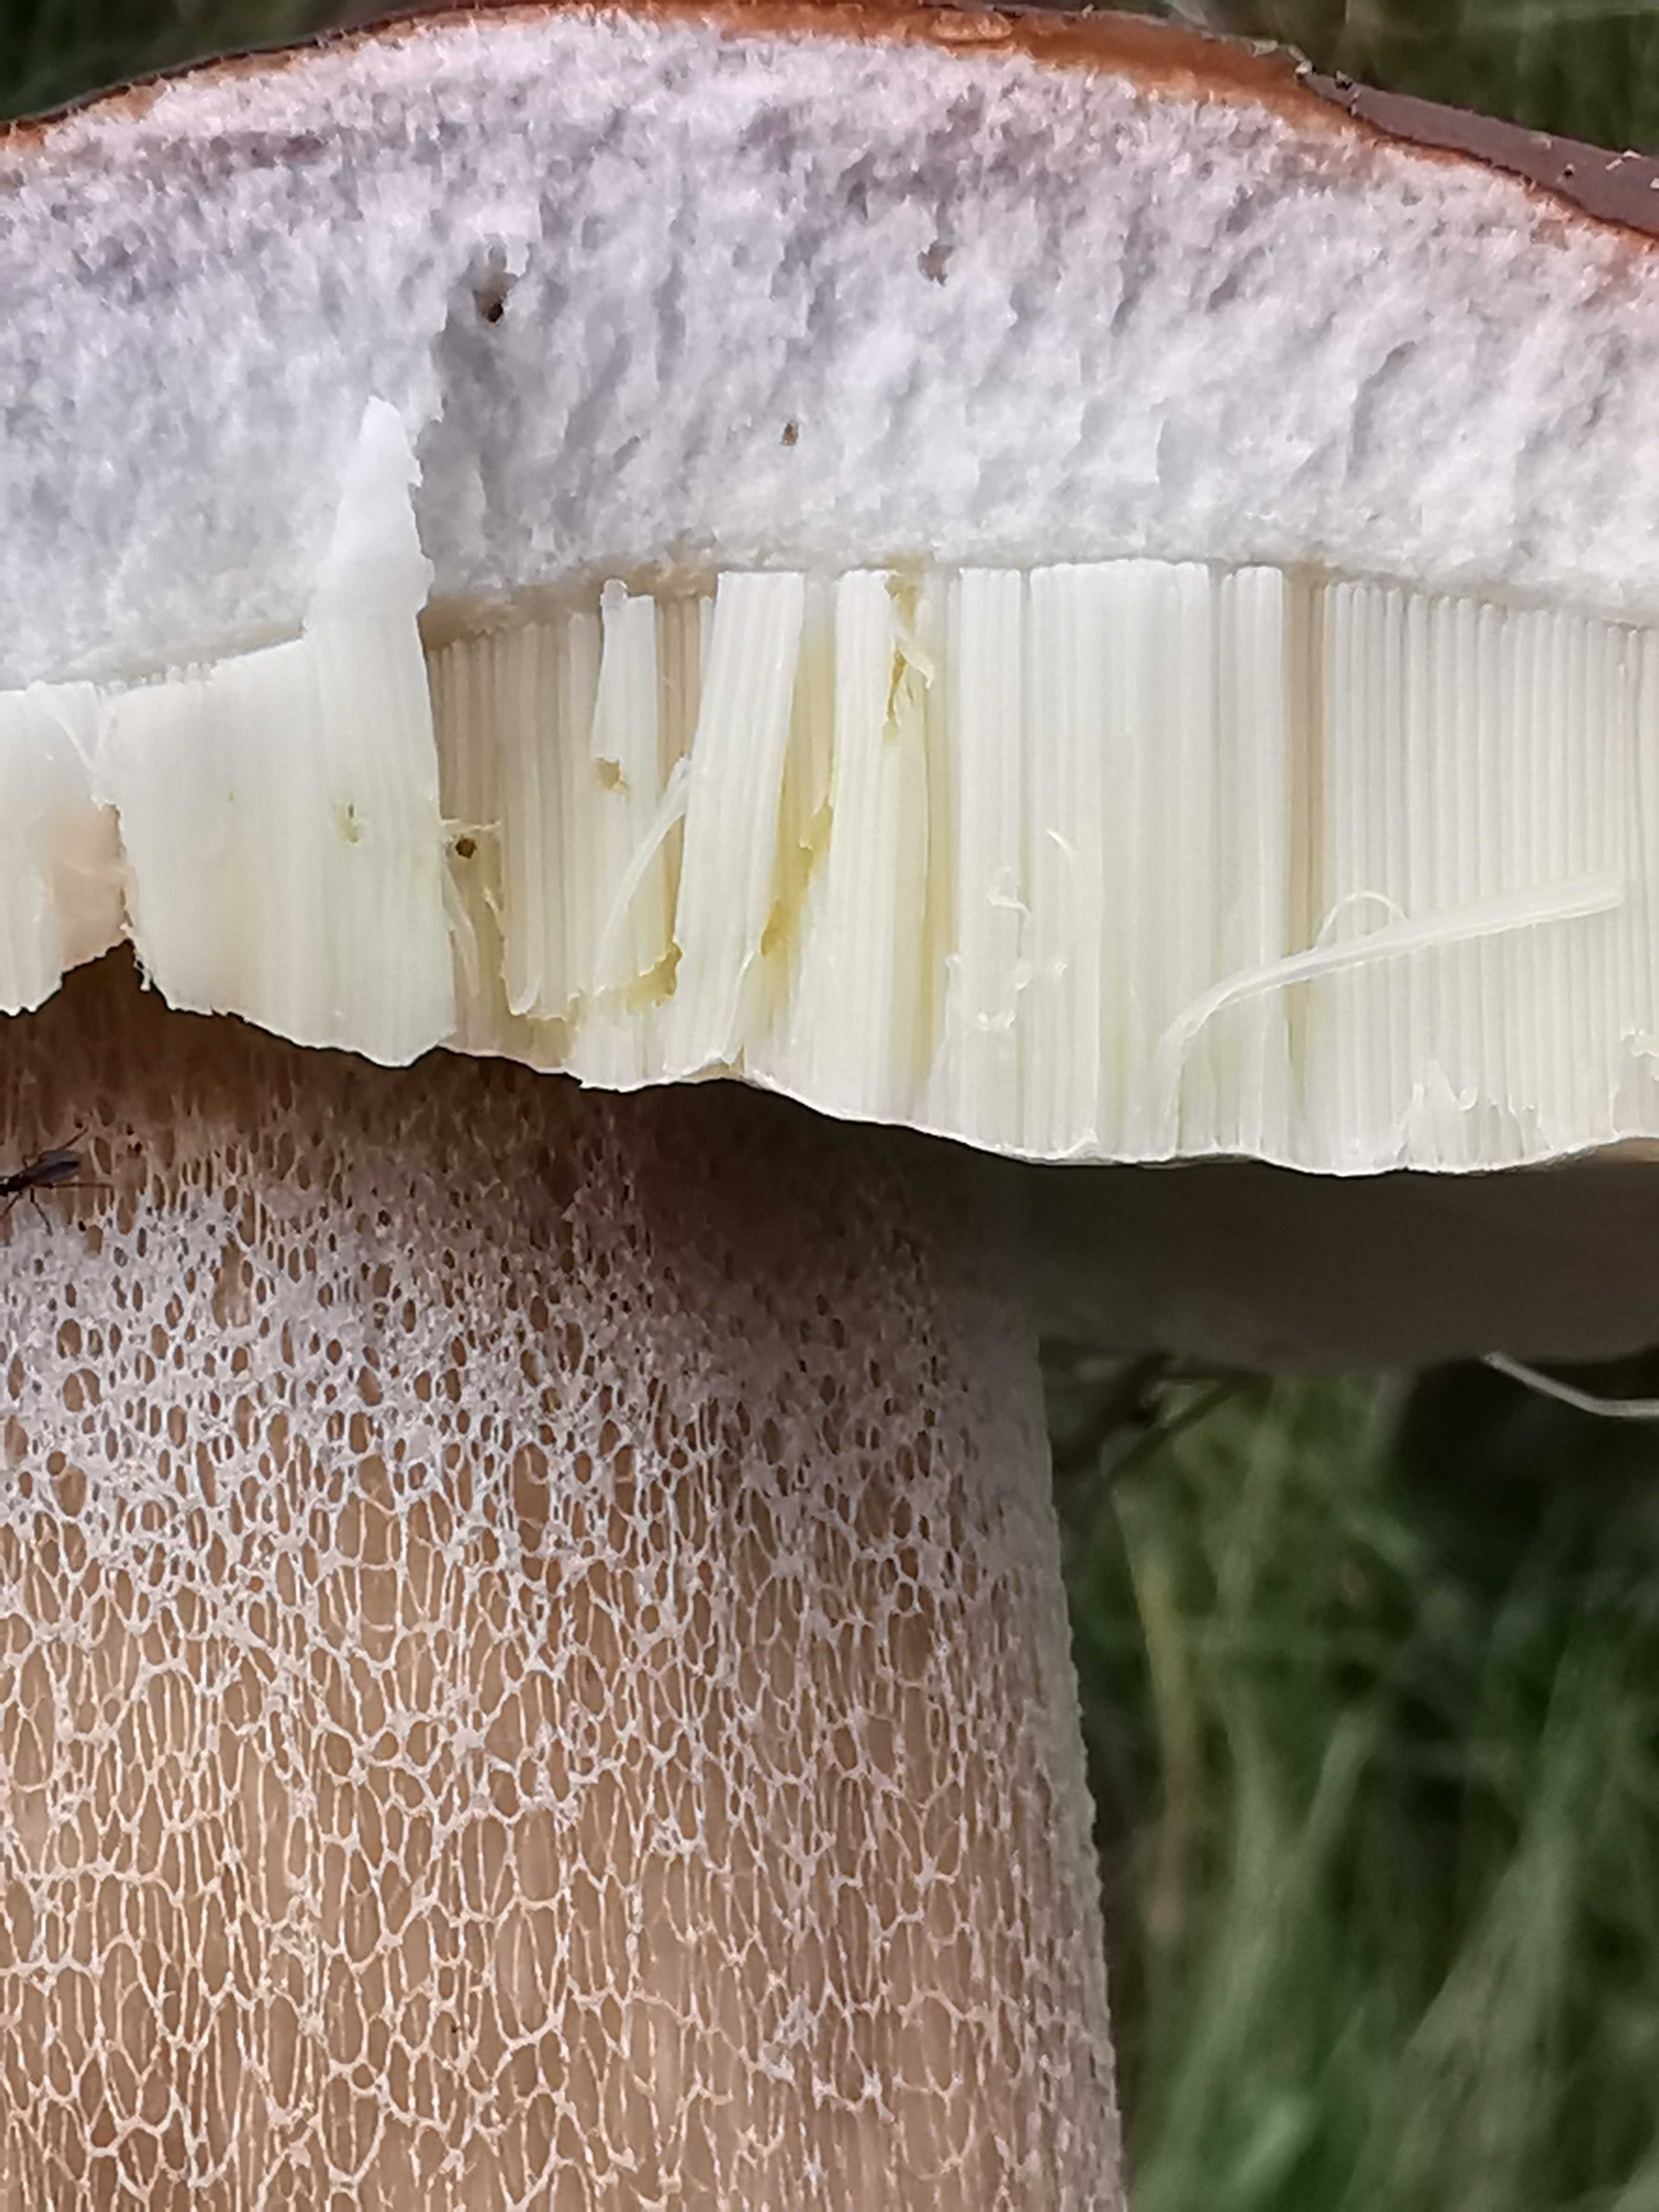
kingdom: Fungi
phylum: Basidiomycota
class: Agaricomycetes
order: Boletales
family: Boletaceae
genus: Boletus
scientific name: Boletus reticulatus
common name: sommer-rørhat
